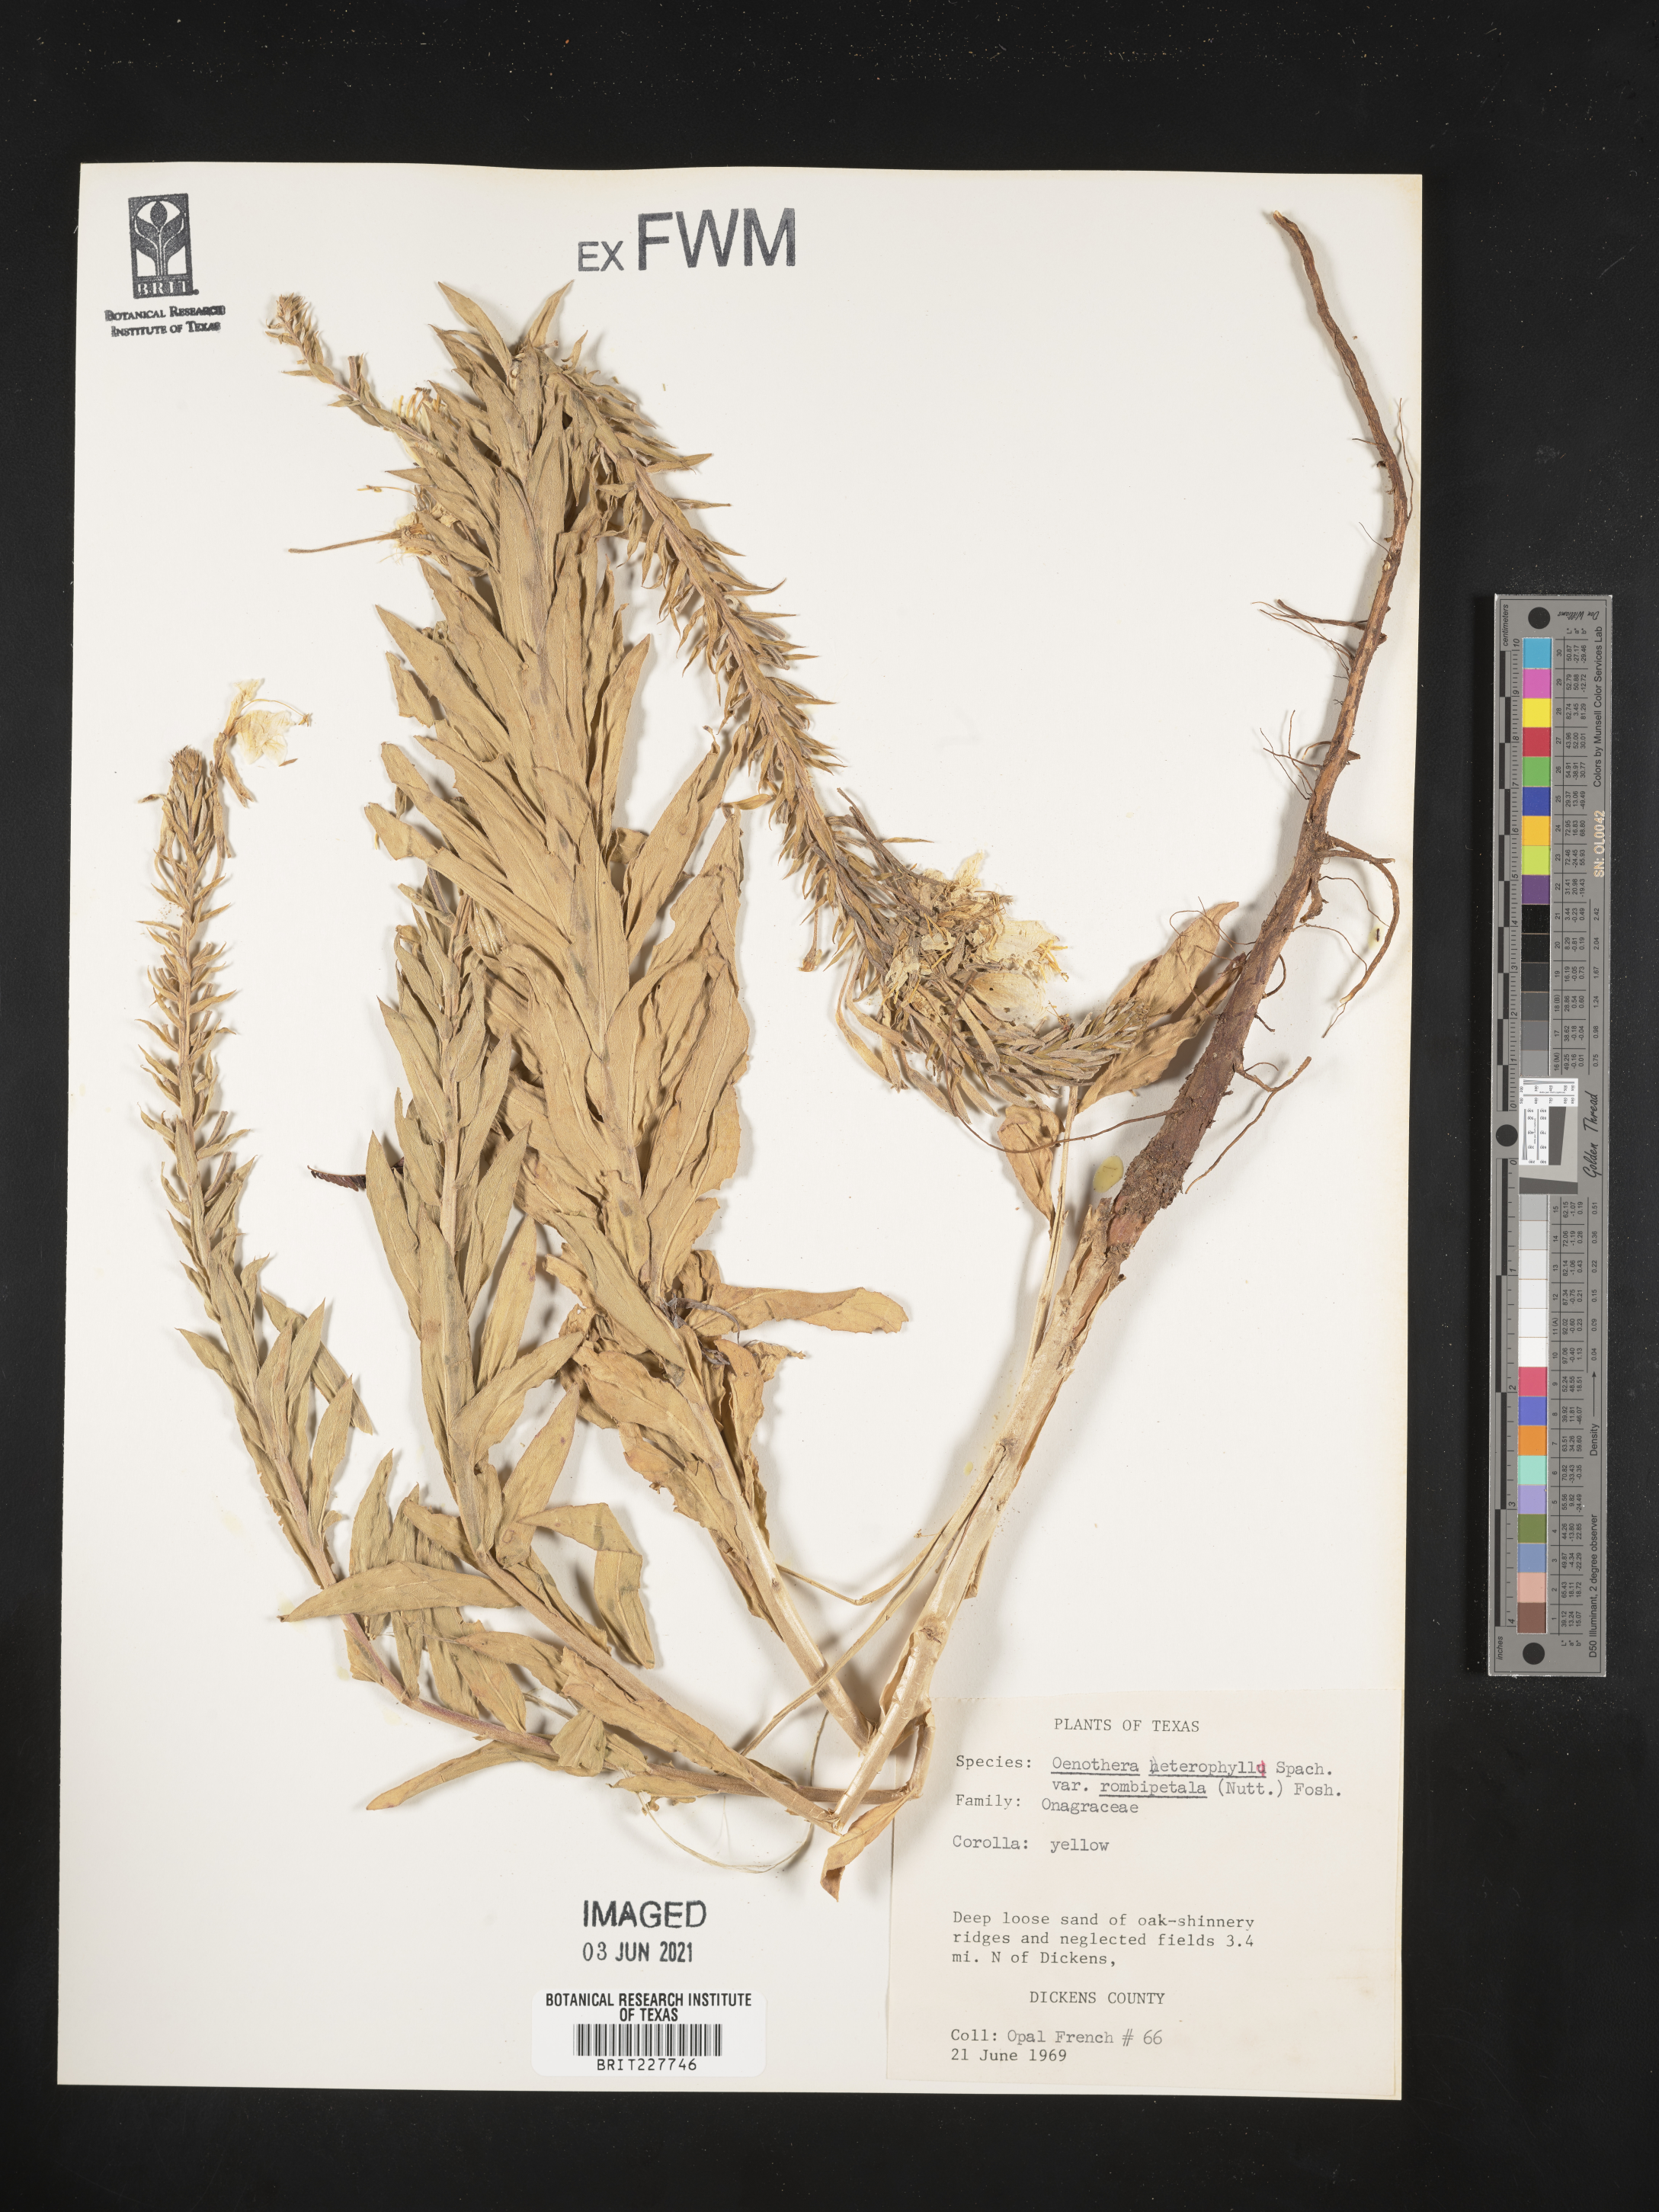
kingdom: Plantae
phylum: Tracheophyta
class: Magnoliopsida
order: Myrtales
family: Onagraceae
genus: Oenothera
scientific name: Oenothera rhombipetala
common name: Four-points evening-primrose
